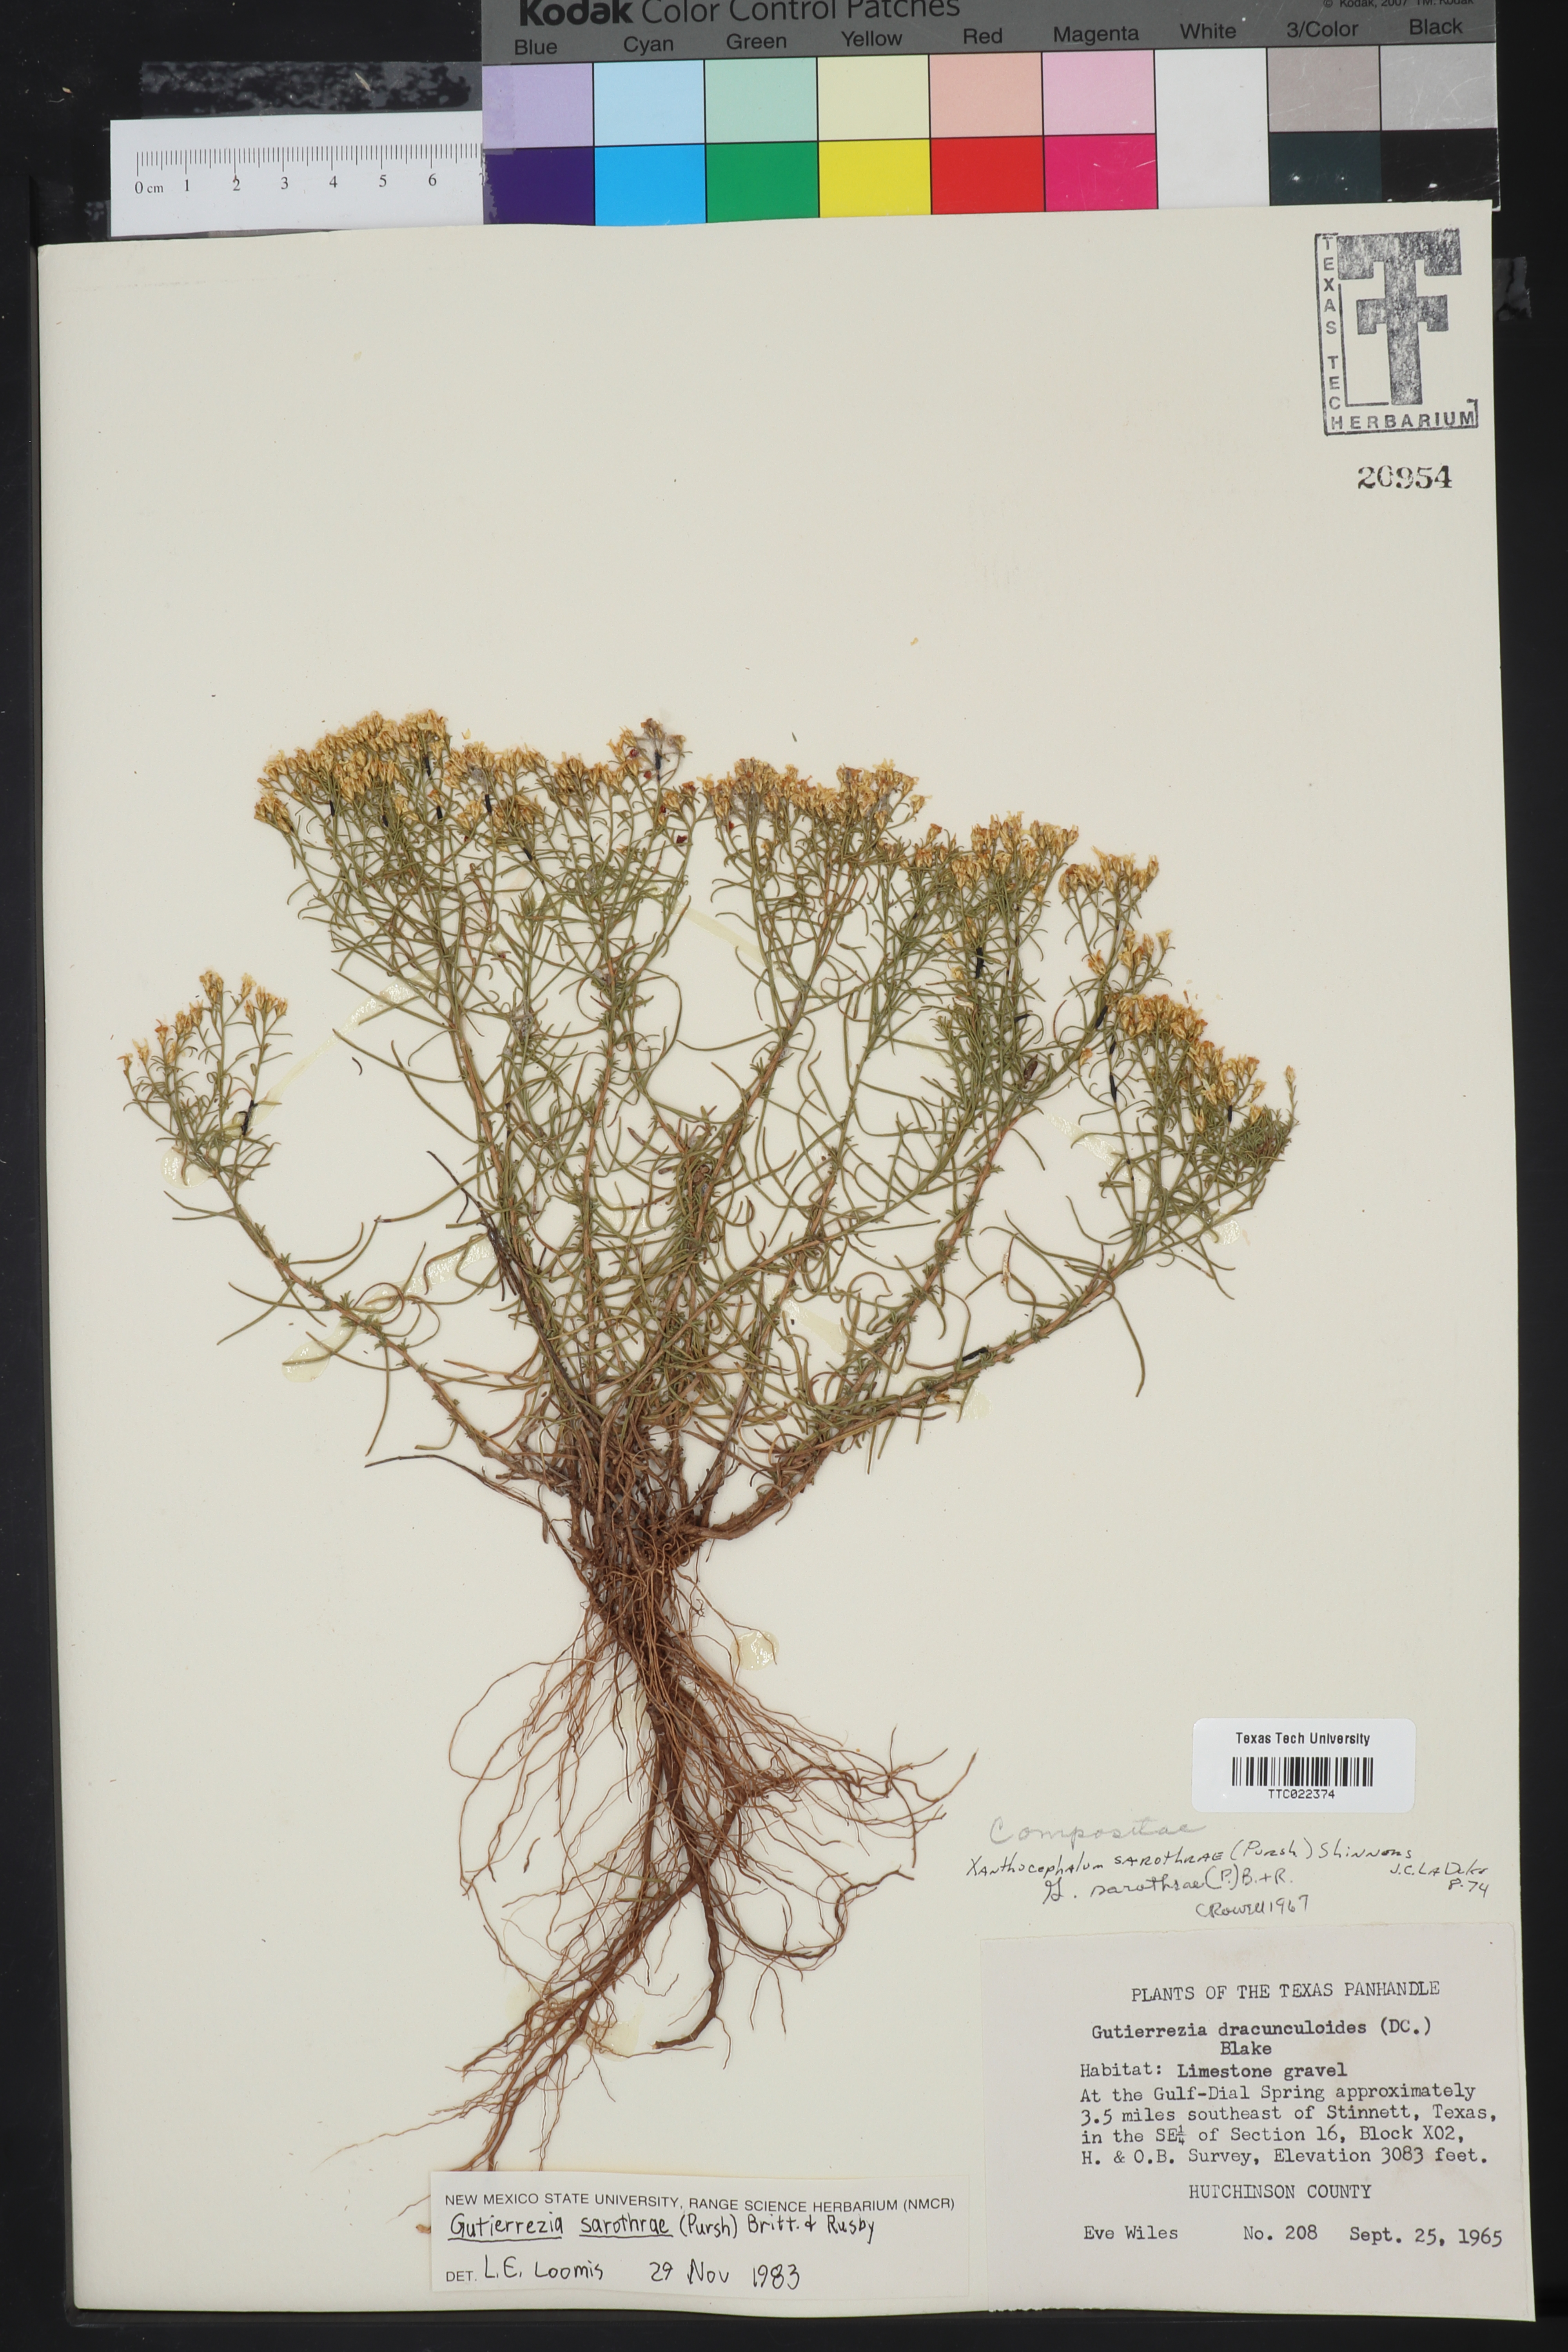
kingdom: Plantae
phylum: Tracheophyta
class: Magnoliopsida
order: Asterales
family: Asteraceae
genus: Amphiachyris
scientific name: Amphiachyris dracunculoides
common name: Broomweed
